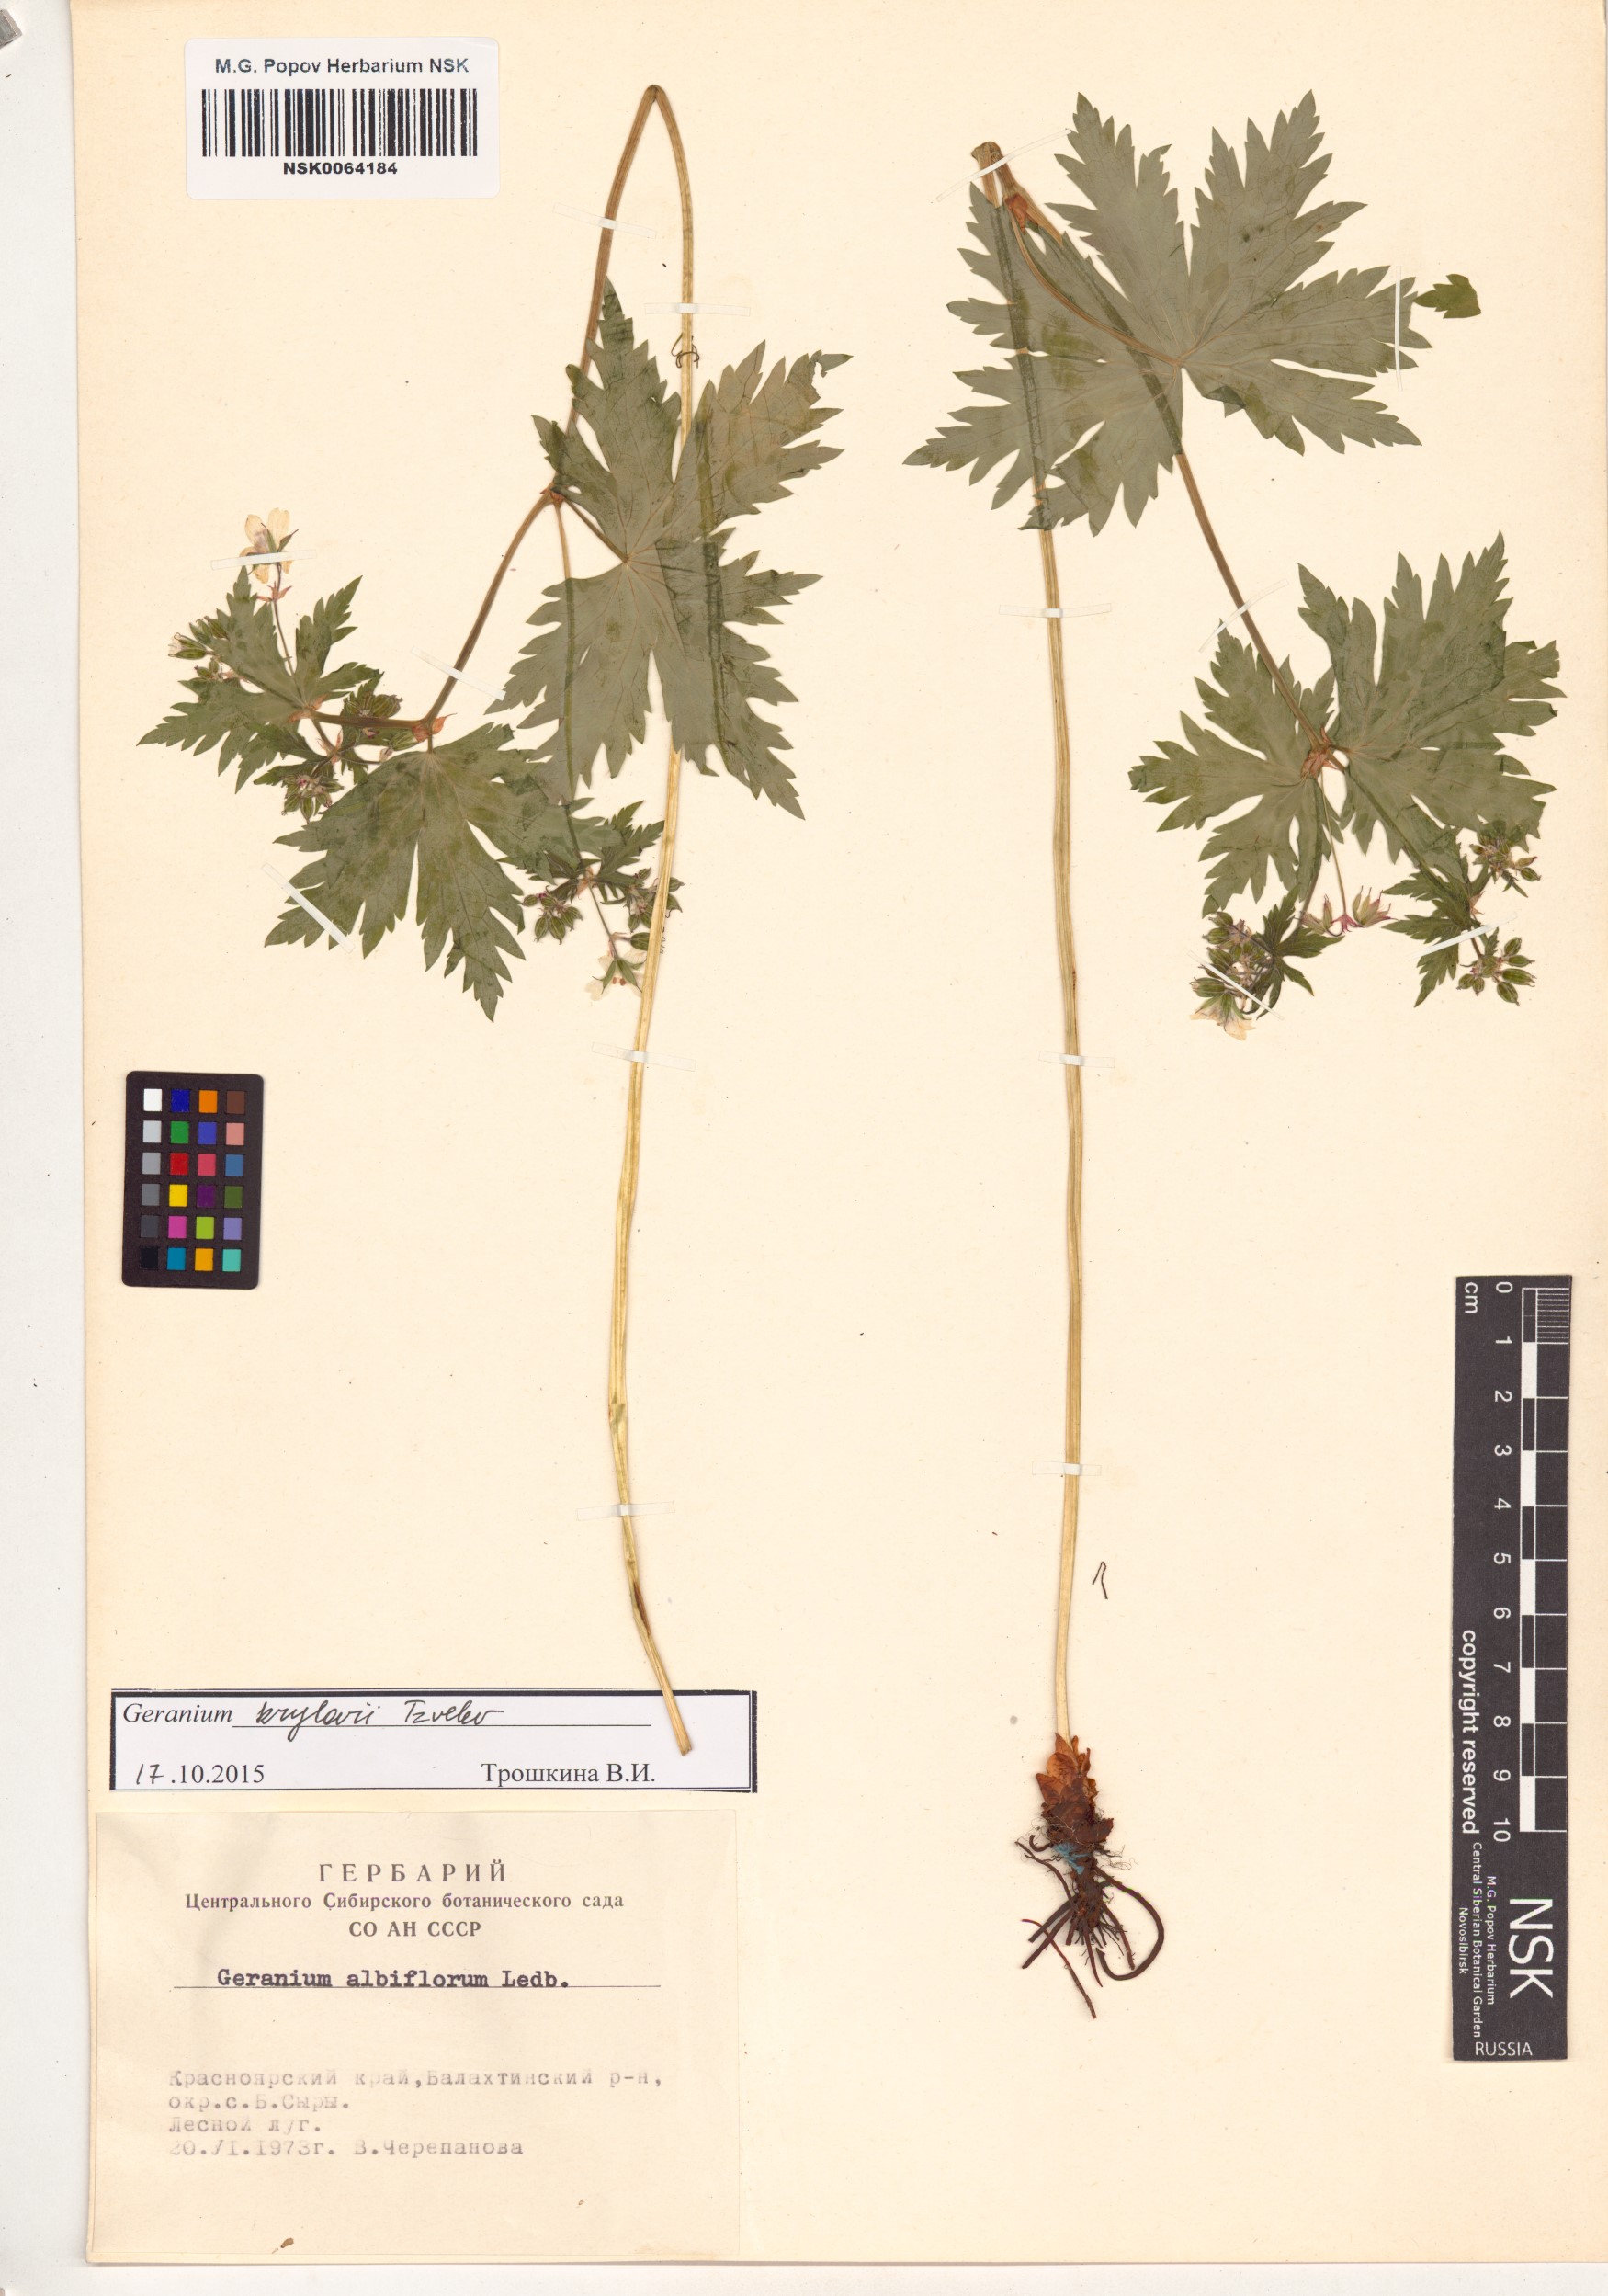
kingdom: Plantae
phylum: Tracheophyta
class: Magnoliopsida
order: Geraniales
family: Geraniaceae
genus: Geranium
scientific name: Geranium sylvaticum
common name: Wood crane's-bill
